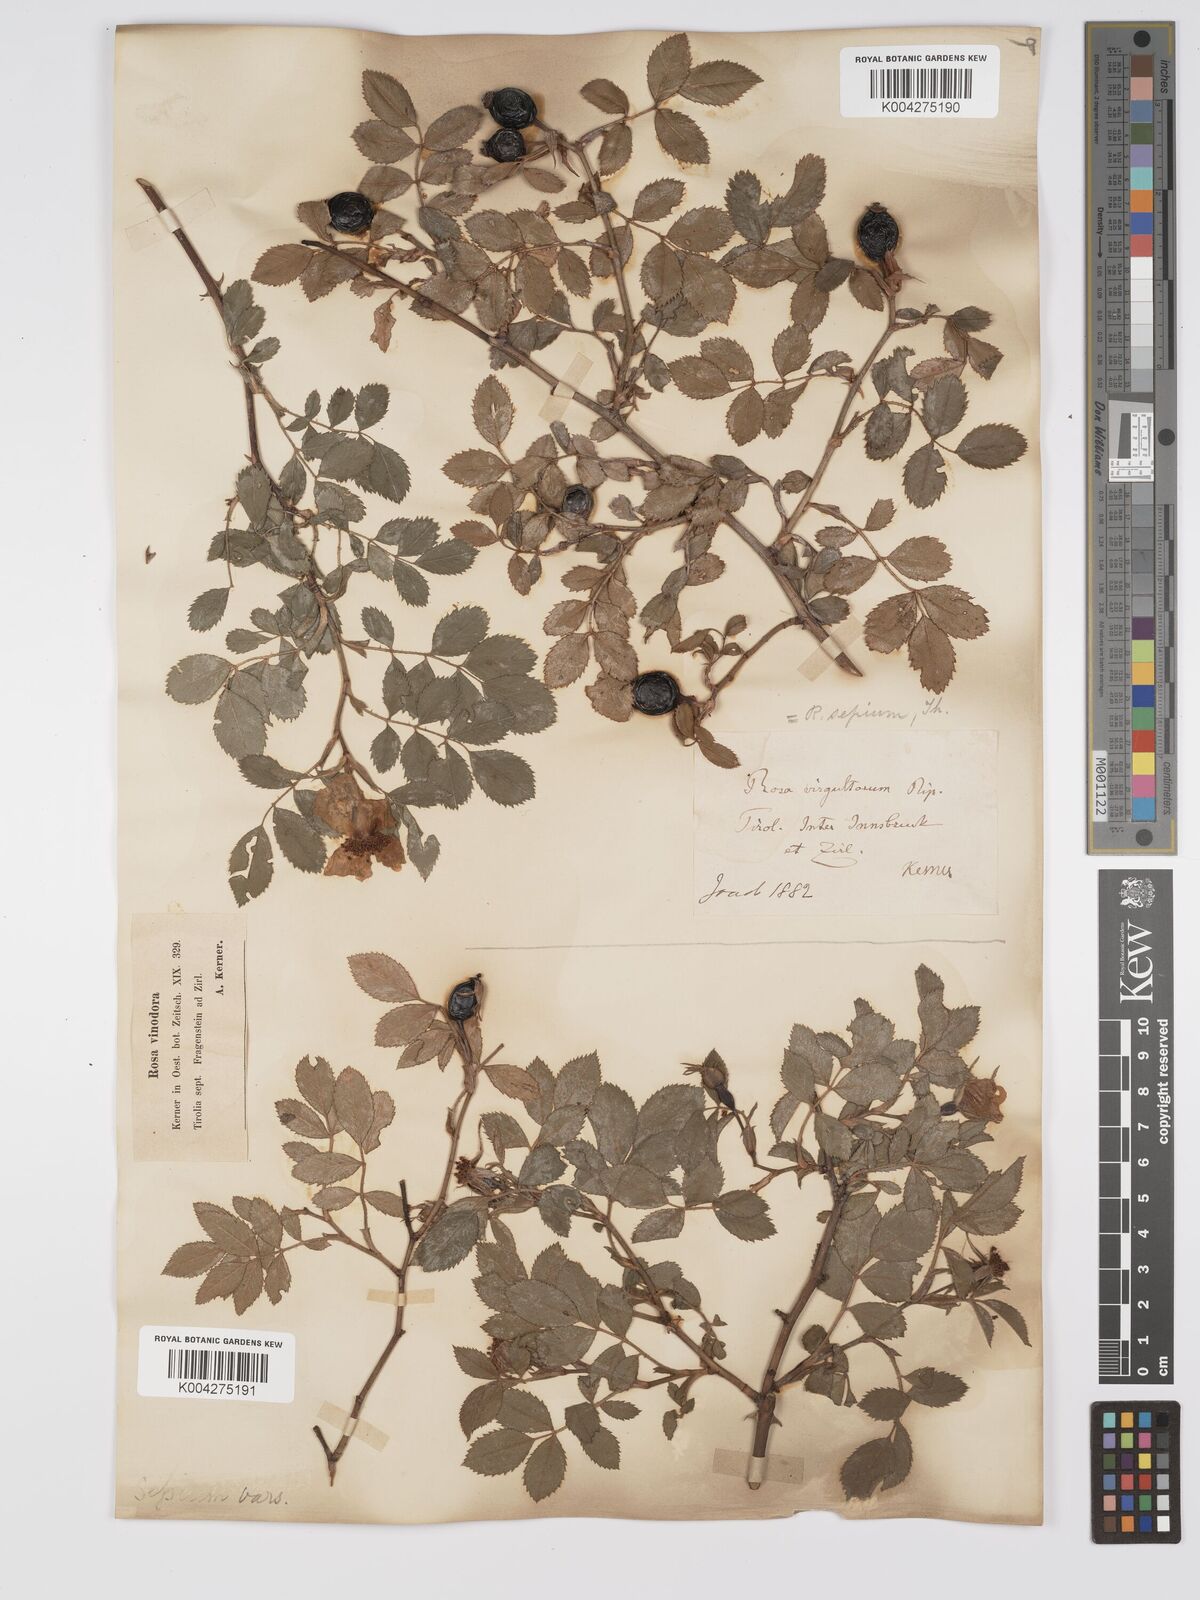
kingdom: Plantae
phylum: Tracheophyta
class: Magnoliopsida
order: Rosales
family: Rosaceae
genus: Rosa
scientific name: Rosa
